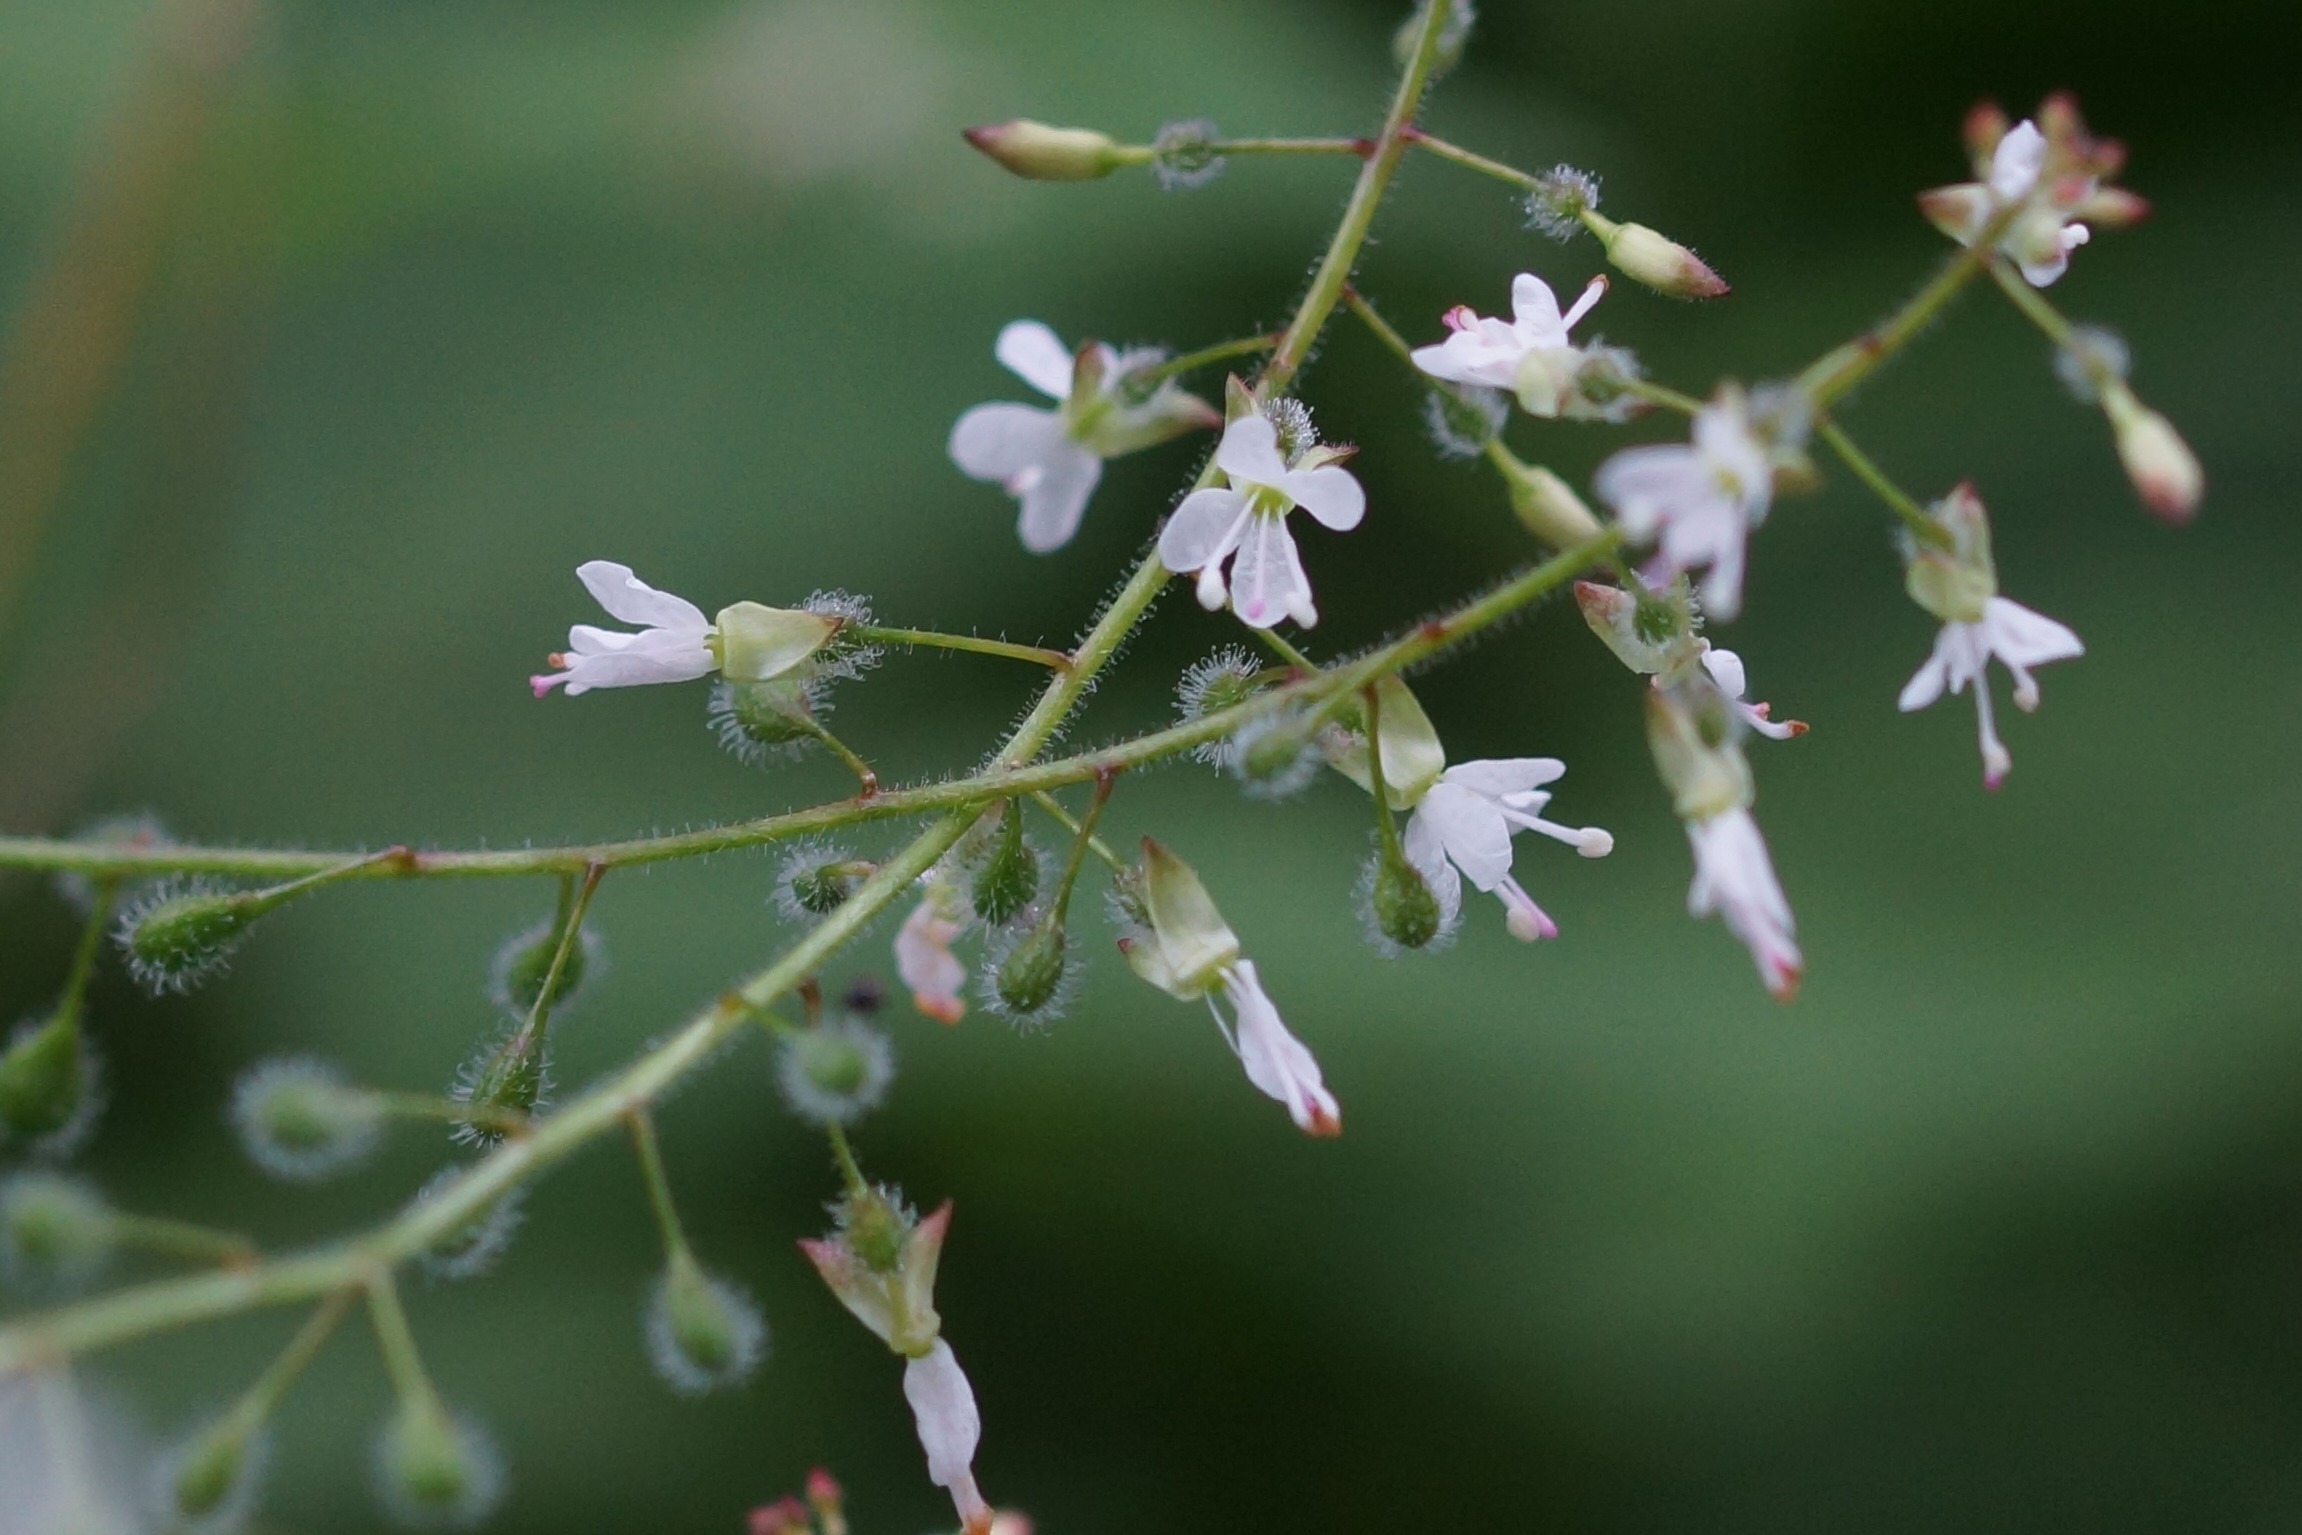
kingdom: Plantae
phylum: Tracheophyta
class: Magnoliopsida
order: Myrtales
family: Onagraceae
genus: Circaea
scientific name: Circaea lutetiana
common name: Dunet steffensurt
